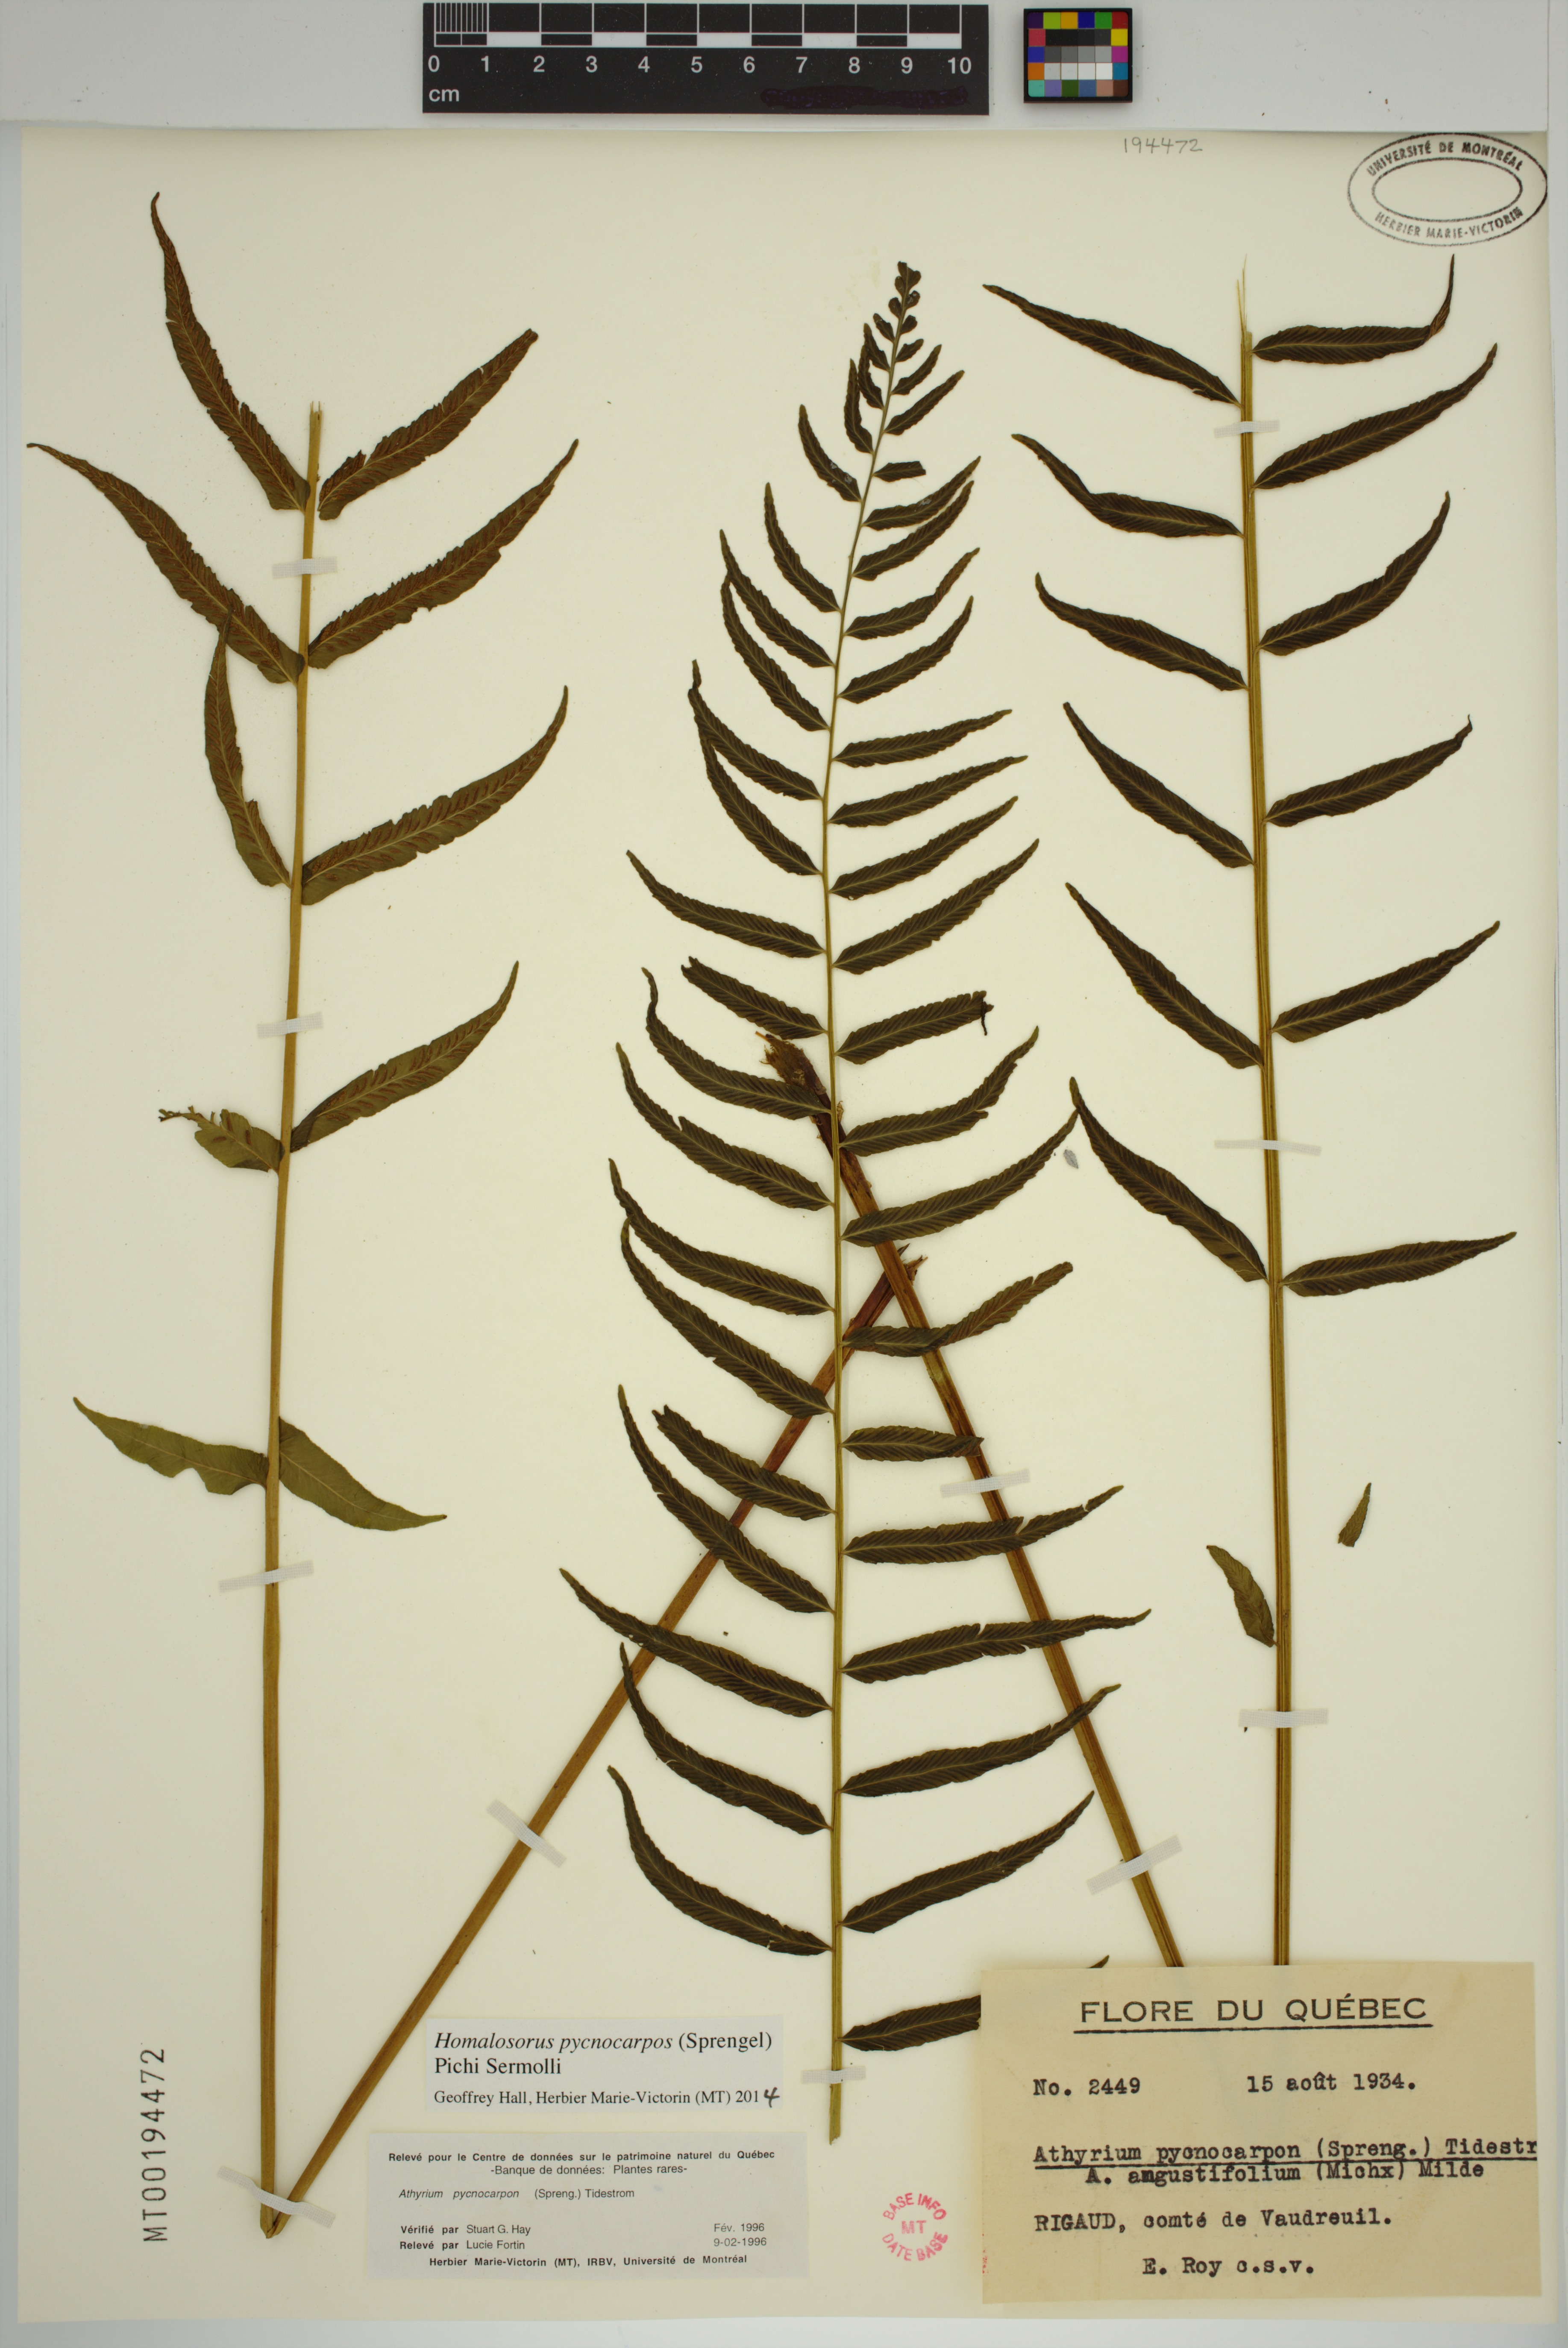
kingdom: Plantae
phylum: Tracheophyta
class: Polypodiopsida
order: Polypodiales
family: Diplaziopsidaceae
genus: Homalosorus
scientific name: Homalosorus pycnocarpos
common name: Glade fern
